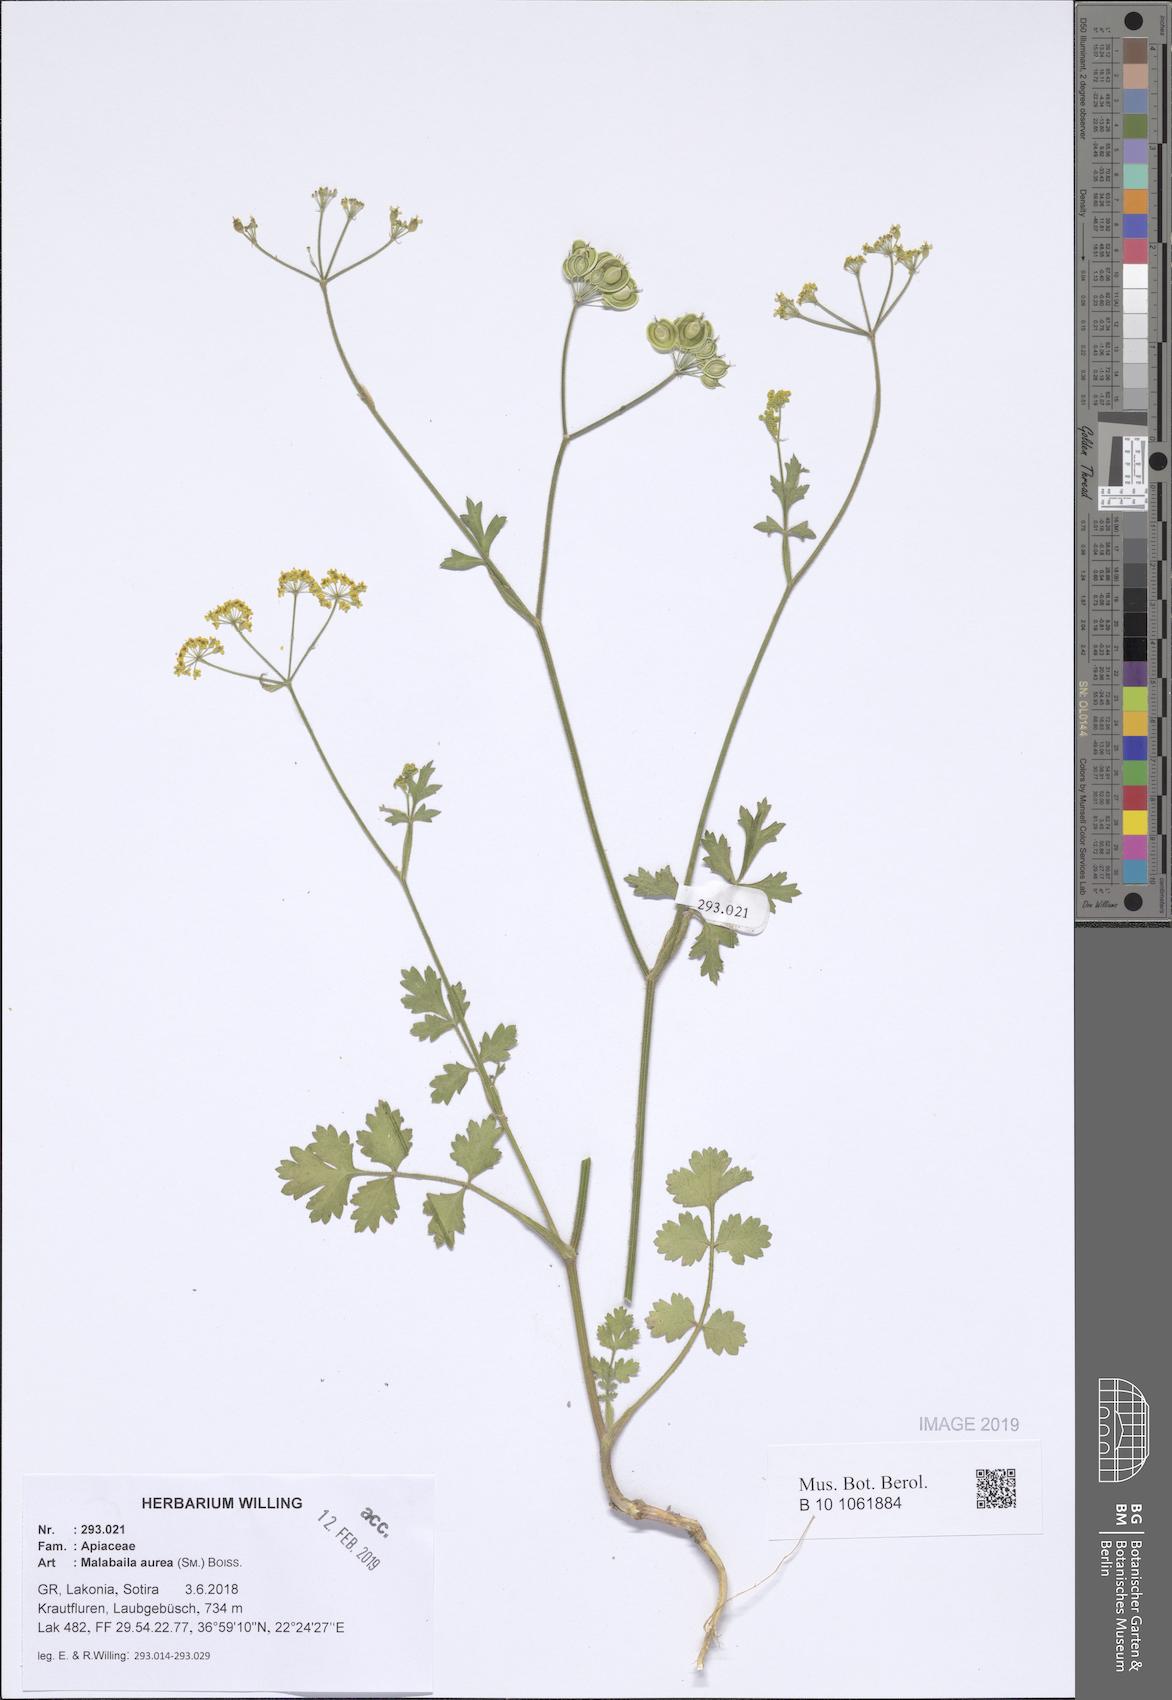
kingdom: Plantae
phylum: Tracheophyta
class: Magnoliopsida
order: Apiales
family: Apiaceae
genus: Leiotulus
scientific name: Leiotulus aureus
